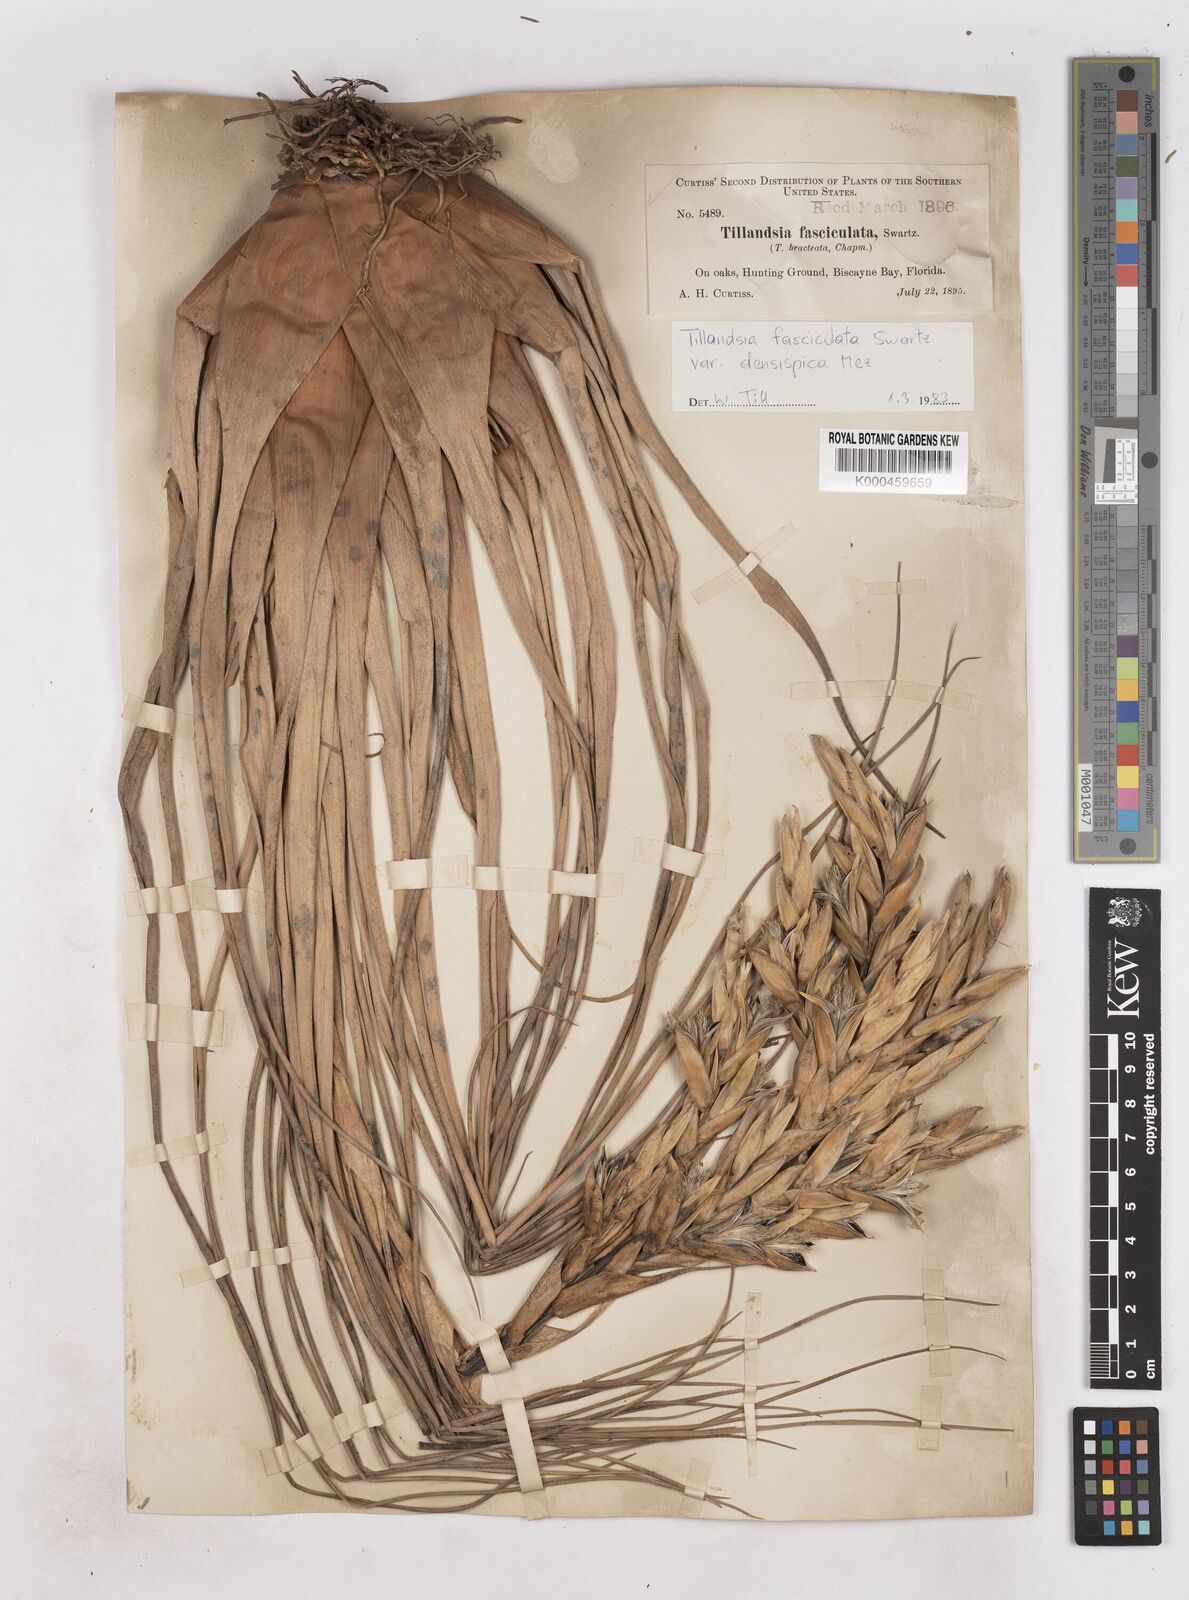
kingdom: Plantae
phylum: Tracheophyta
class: Liliopsida
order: Poales
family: Bromeliaceae
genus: Tillandsia
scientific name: Tillandsia fasciculata
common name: Giant airplant
